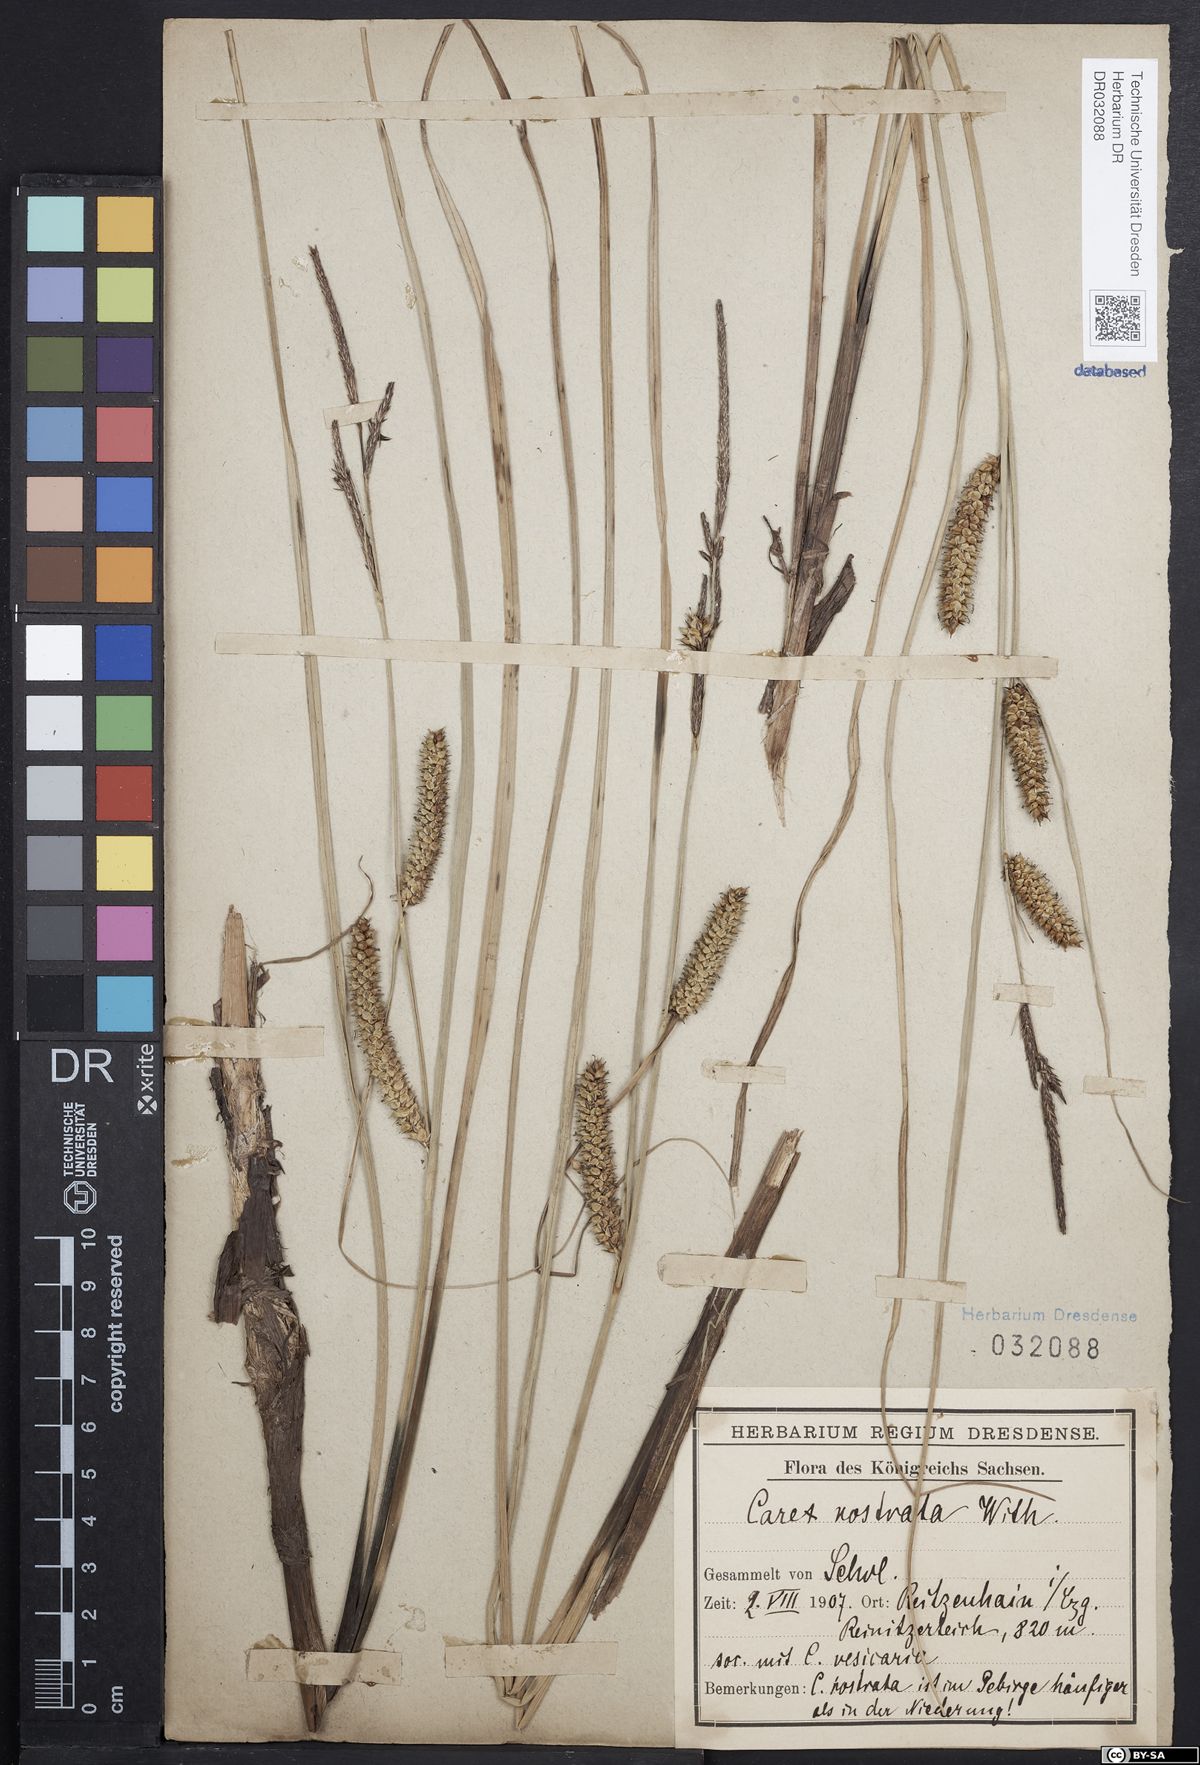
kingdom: Plantae
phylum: Tracheophyta
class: Liliopsida
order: Poales
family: Cyperaceae
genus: Carex
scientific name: Carex rostrata
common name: Bottle sedge
